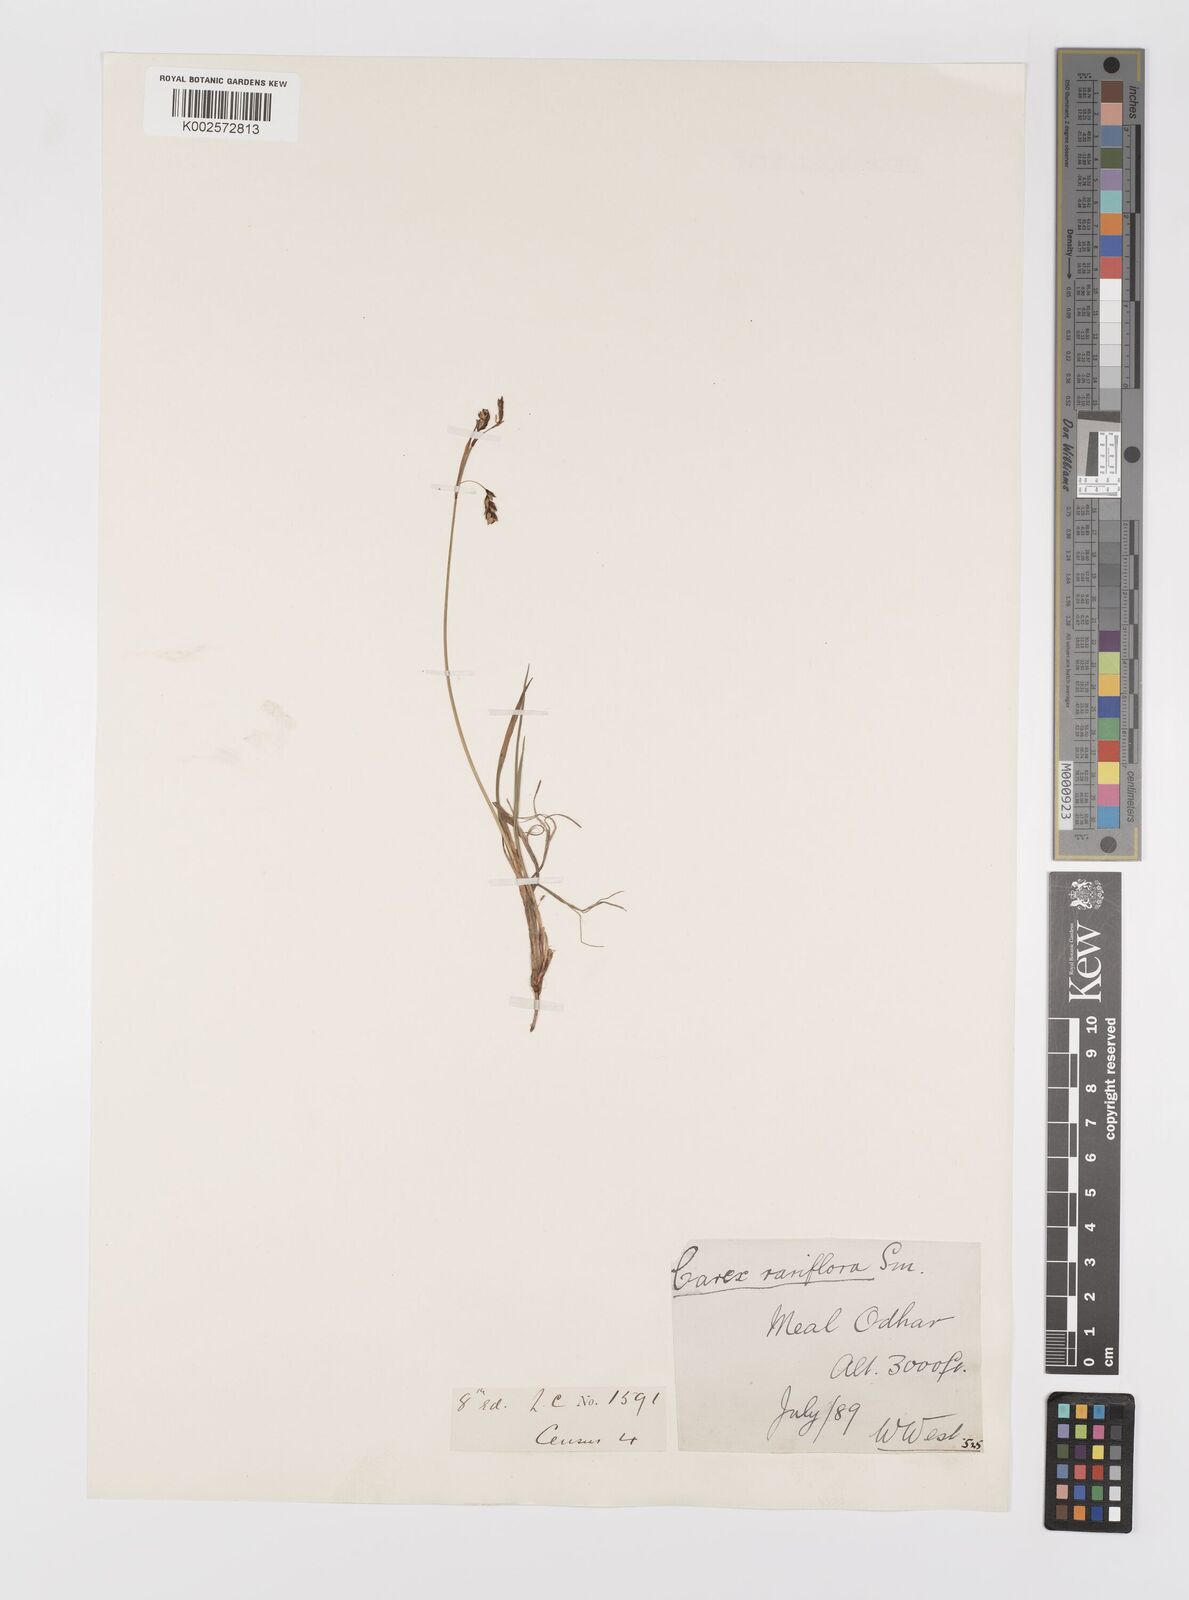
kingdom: Plantae
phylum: Tracheophyta
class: Liliopsida
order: Poales
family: Cyperaceae
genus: Carex
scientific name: Carex rariflora
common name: Loose-flowered alpine sedge
